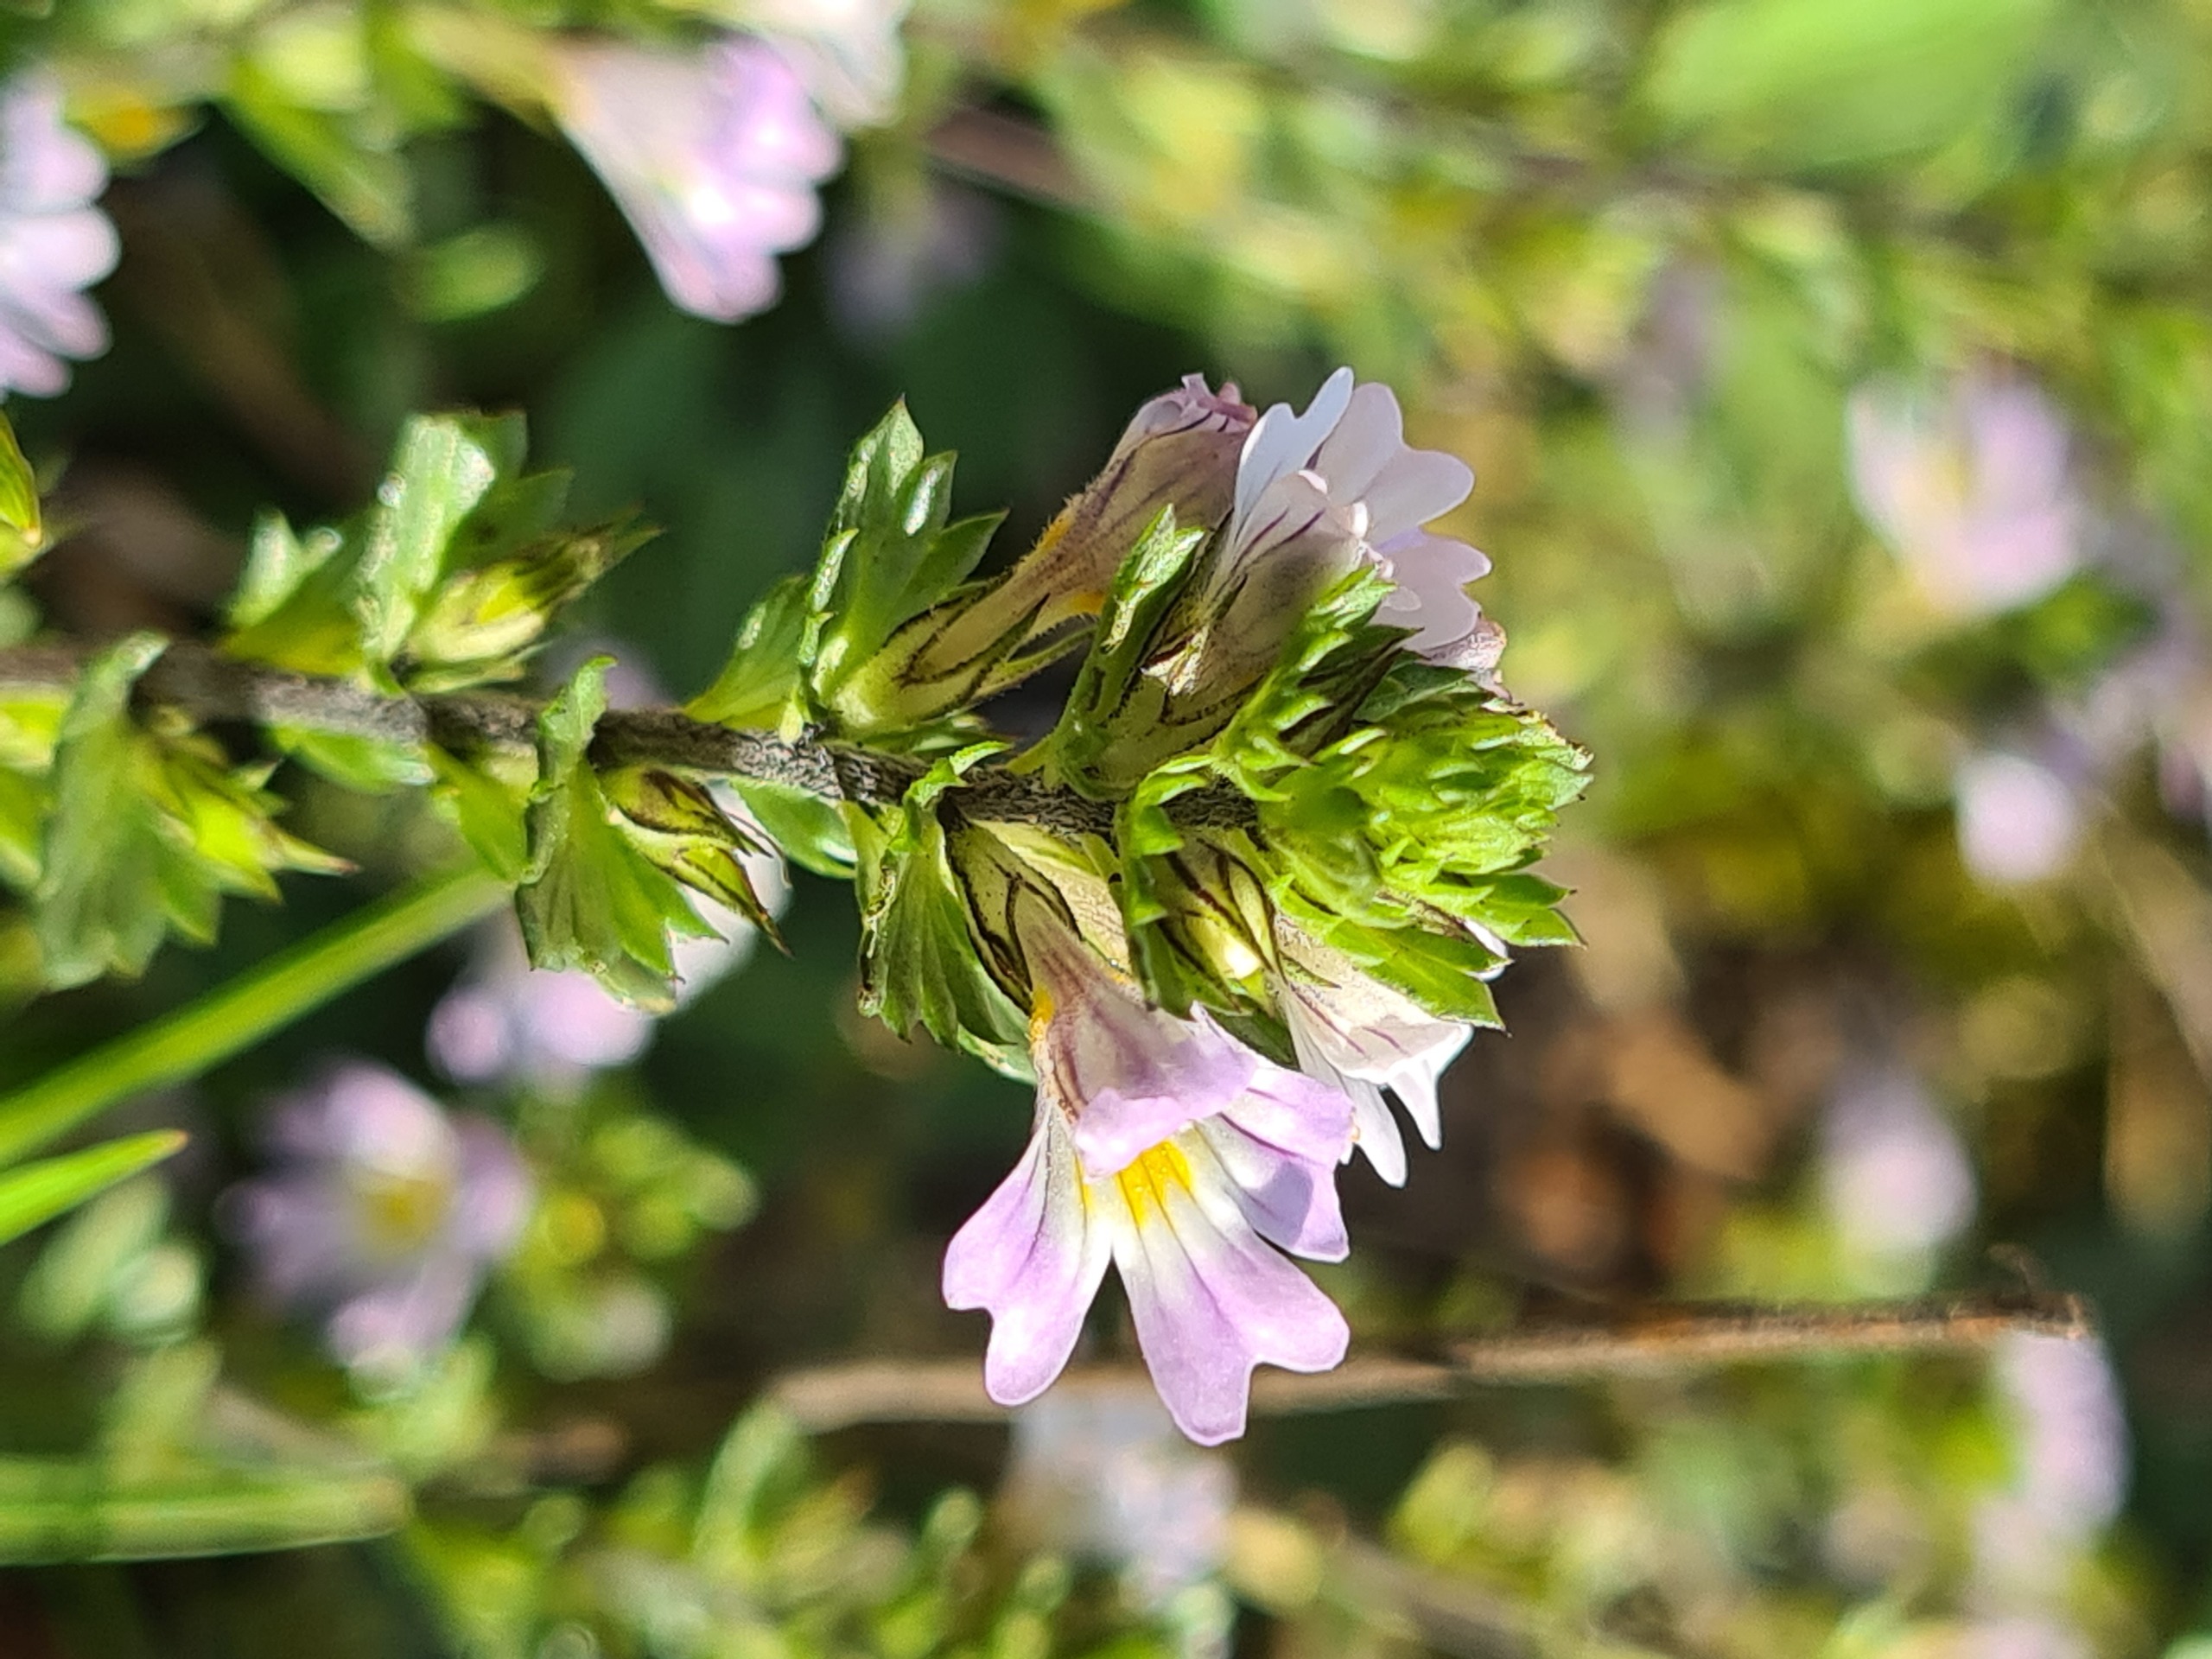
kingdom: Plantae
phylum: Tracheophyta
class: Magnoliopsida
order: Lamiales
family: Orobanchaceae
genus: Euphrasia
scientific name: Euphrasia stricta
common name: Spids øjentrøst
